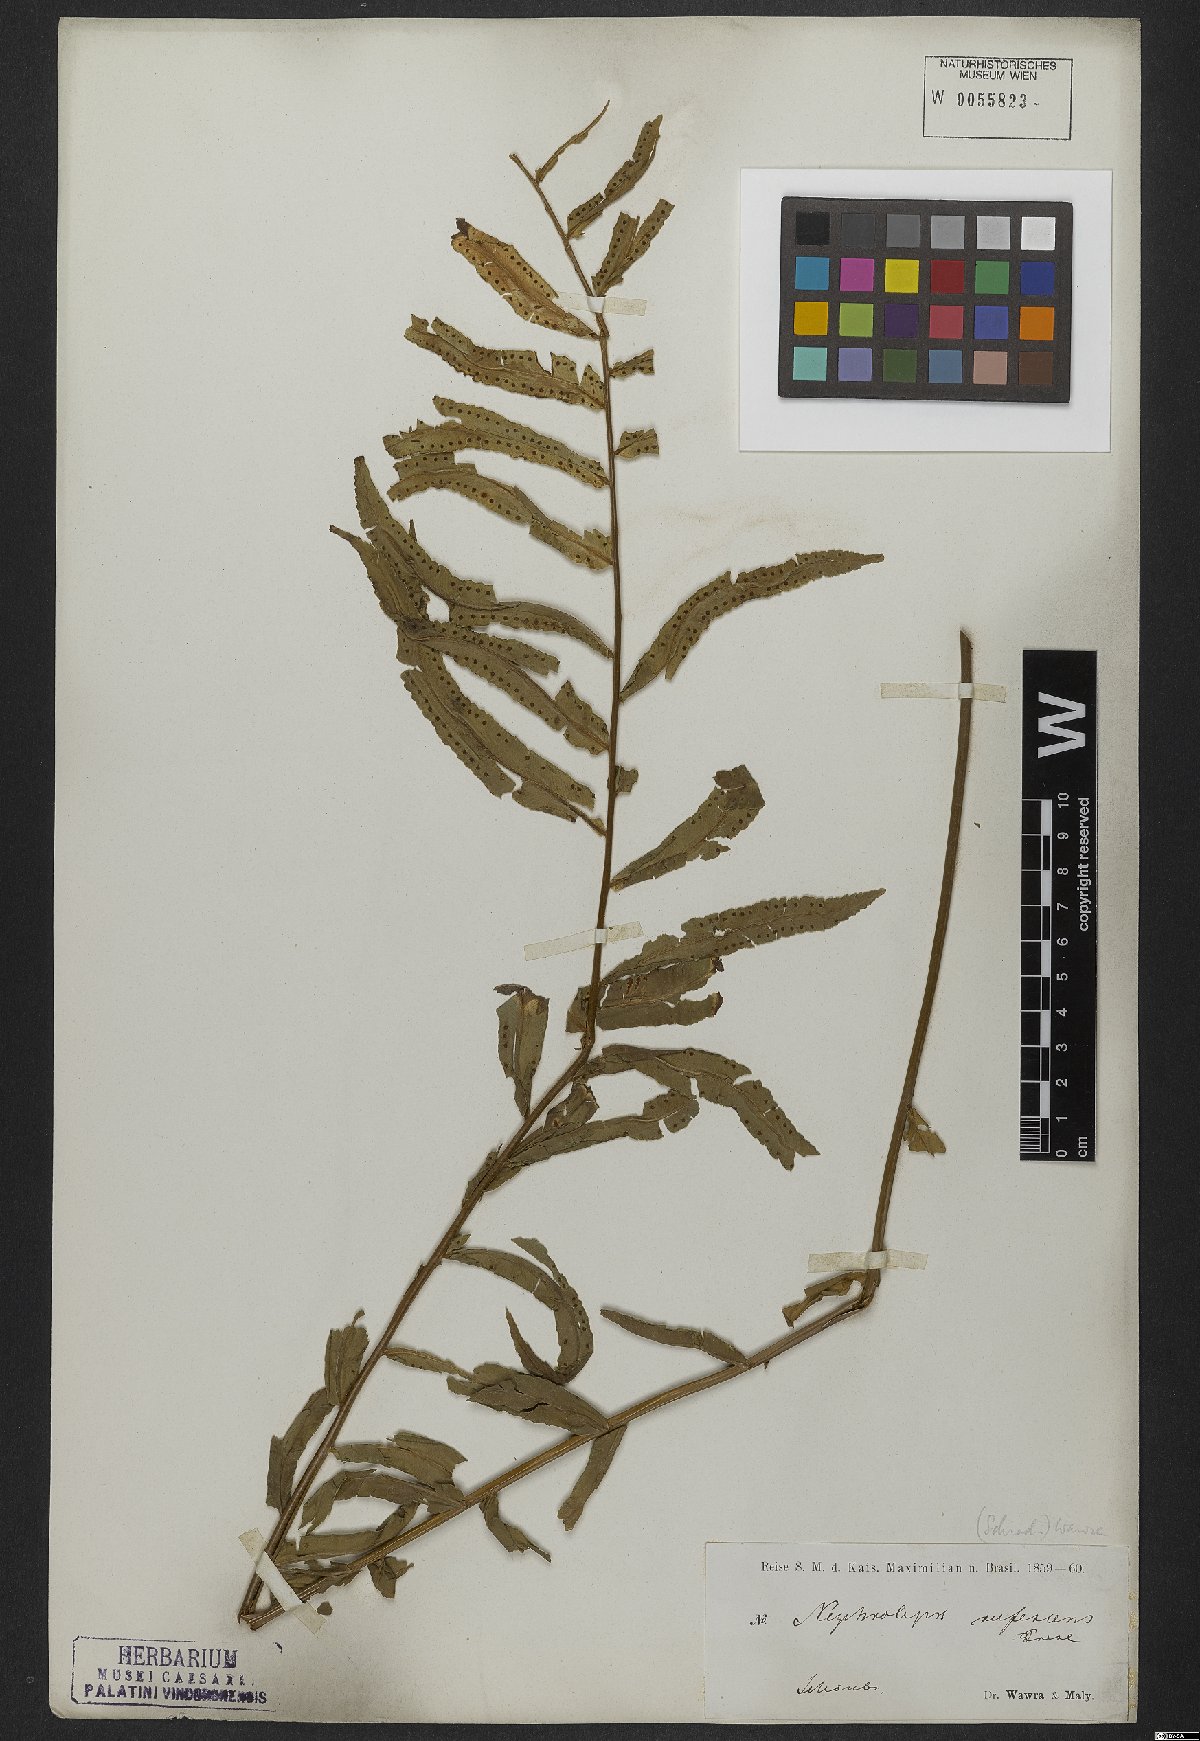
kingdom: Plantae
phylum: Tracheophyta
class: Polypodiopsida
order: Polypodiales
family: Nephrolepidaceae
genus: Nephrolepis
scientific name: Nephrolepis biserrata
